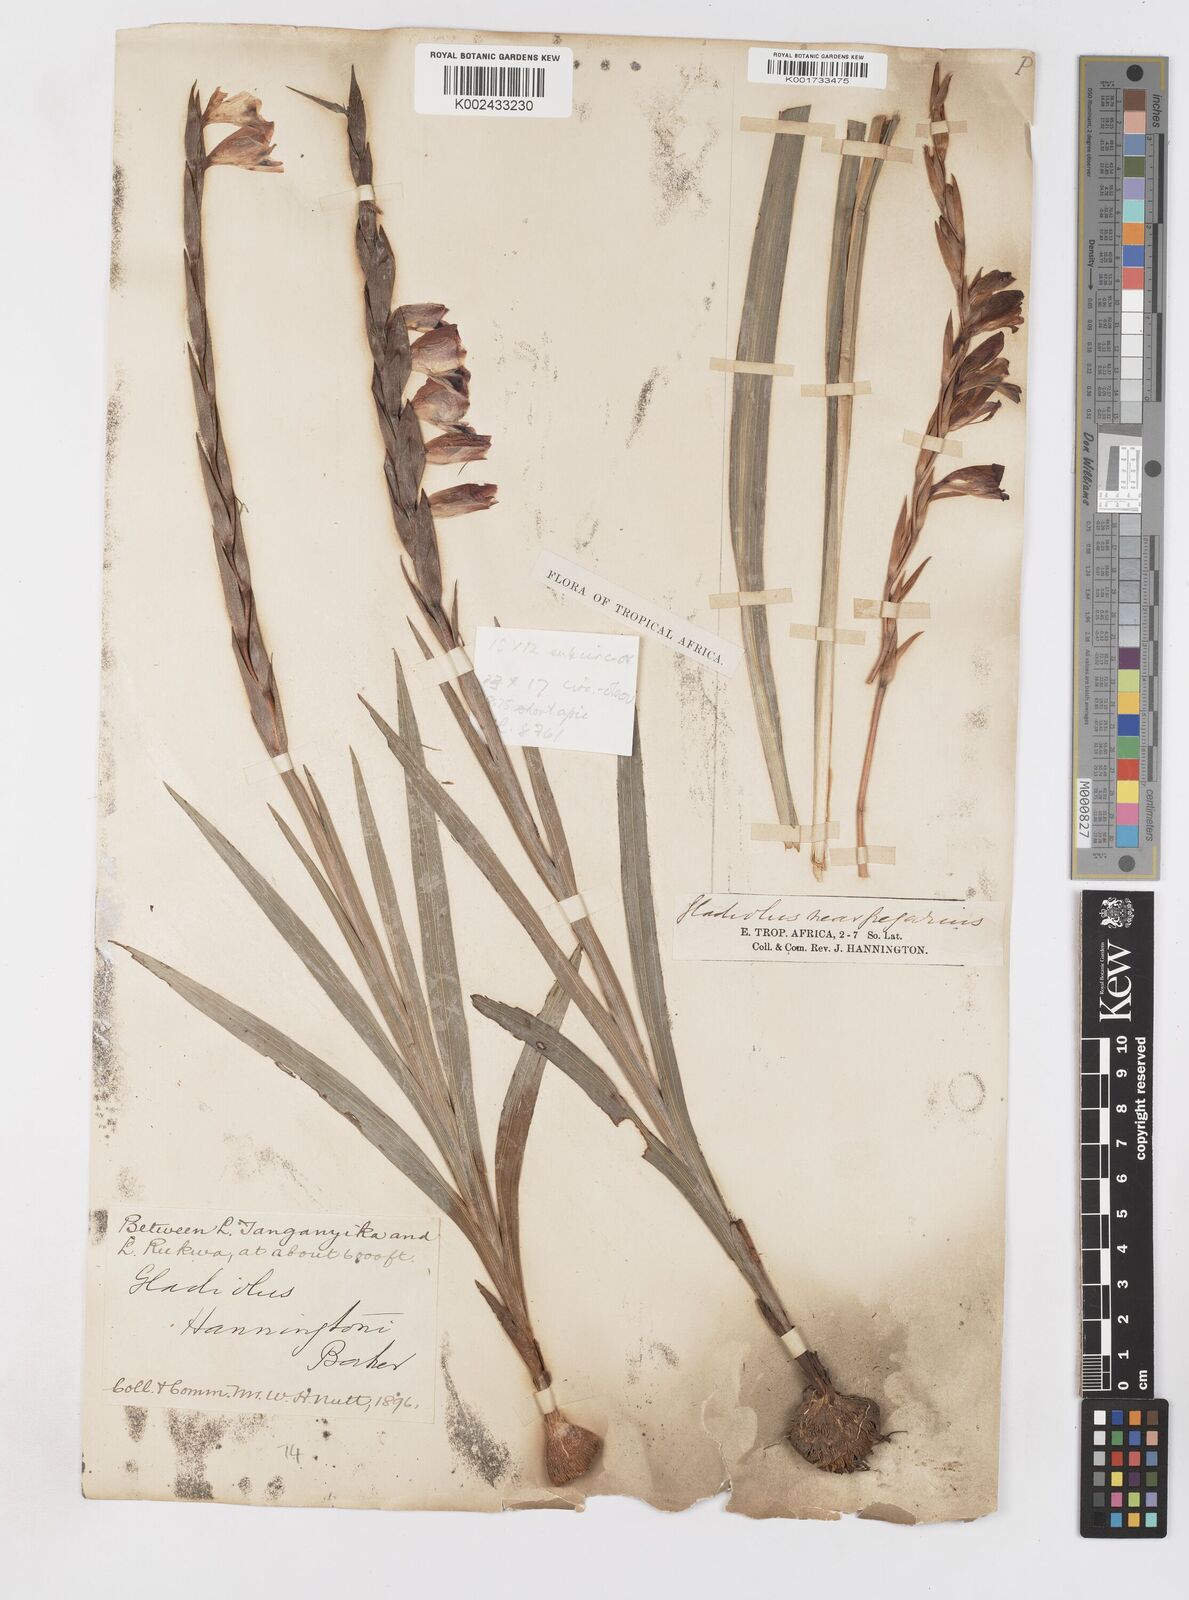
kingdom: Plantae
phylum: Tracheophyta
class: Liliopsida
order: Asparagales
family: Iridaceae
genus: Gladiolus
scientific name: Gladiolus gregarius
